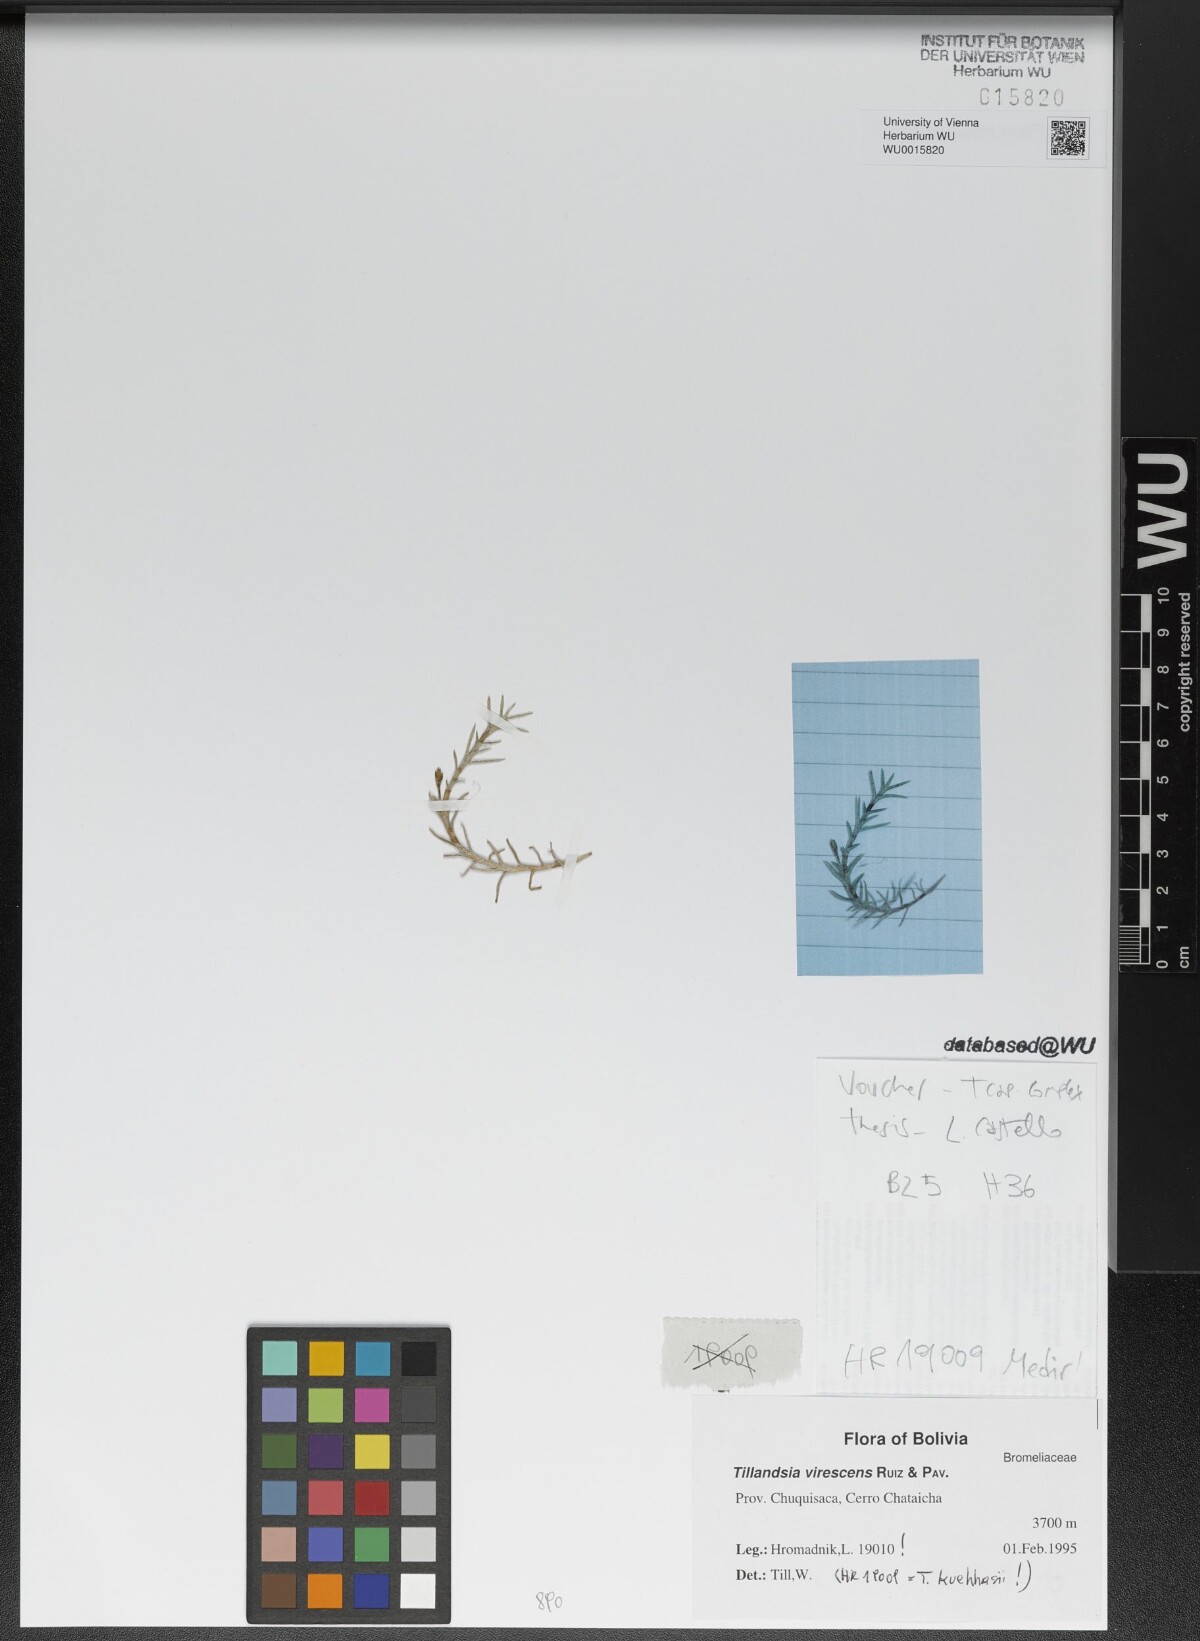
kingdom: Plantae
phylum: Tracheophyta
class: Liliopsida
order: Poales
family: Bromeliaceae
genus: Tillandsia
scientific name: Tillandsia virescens
